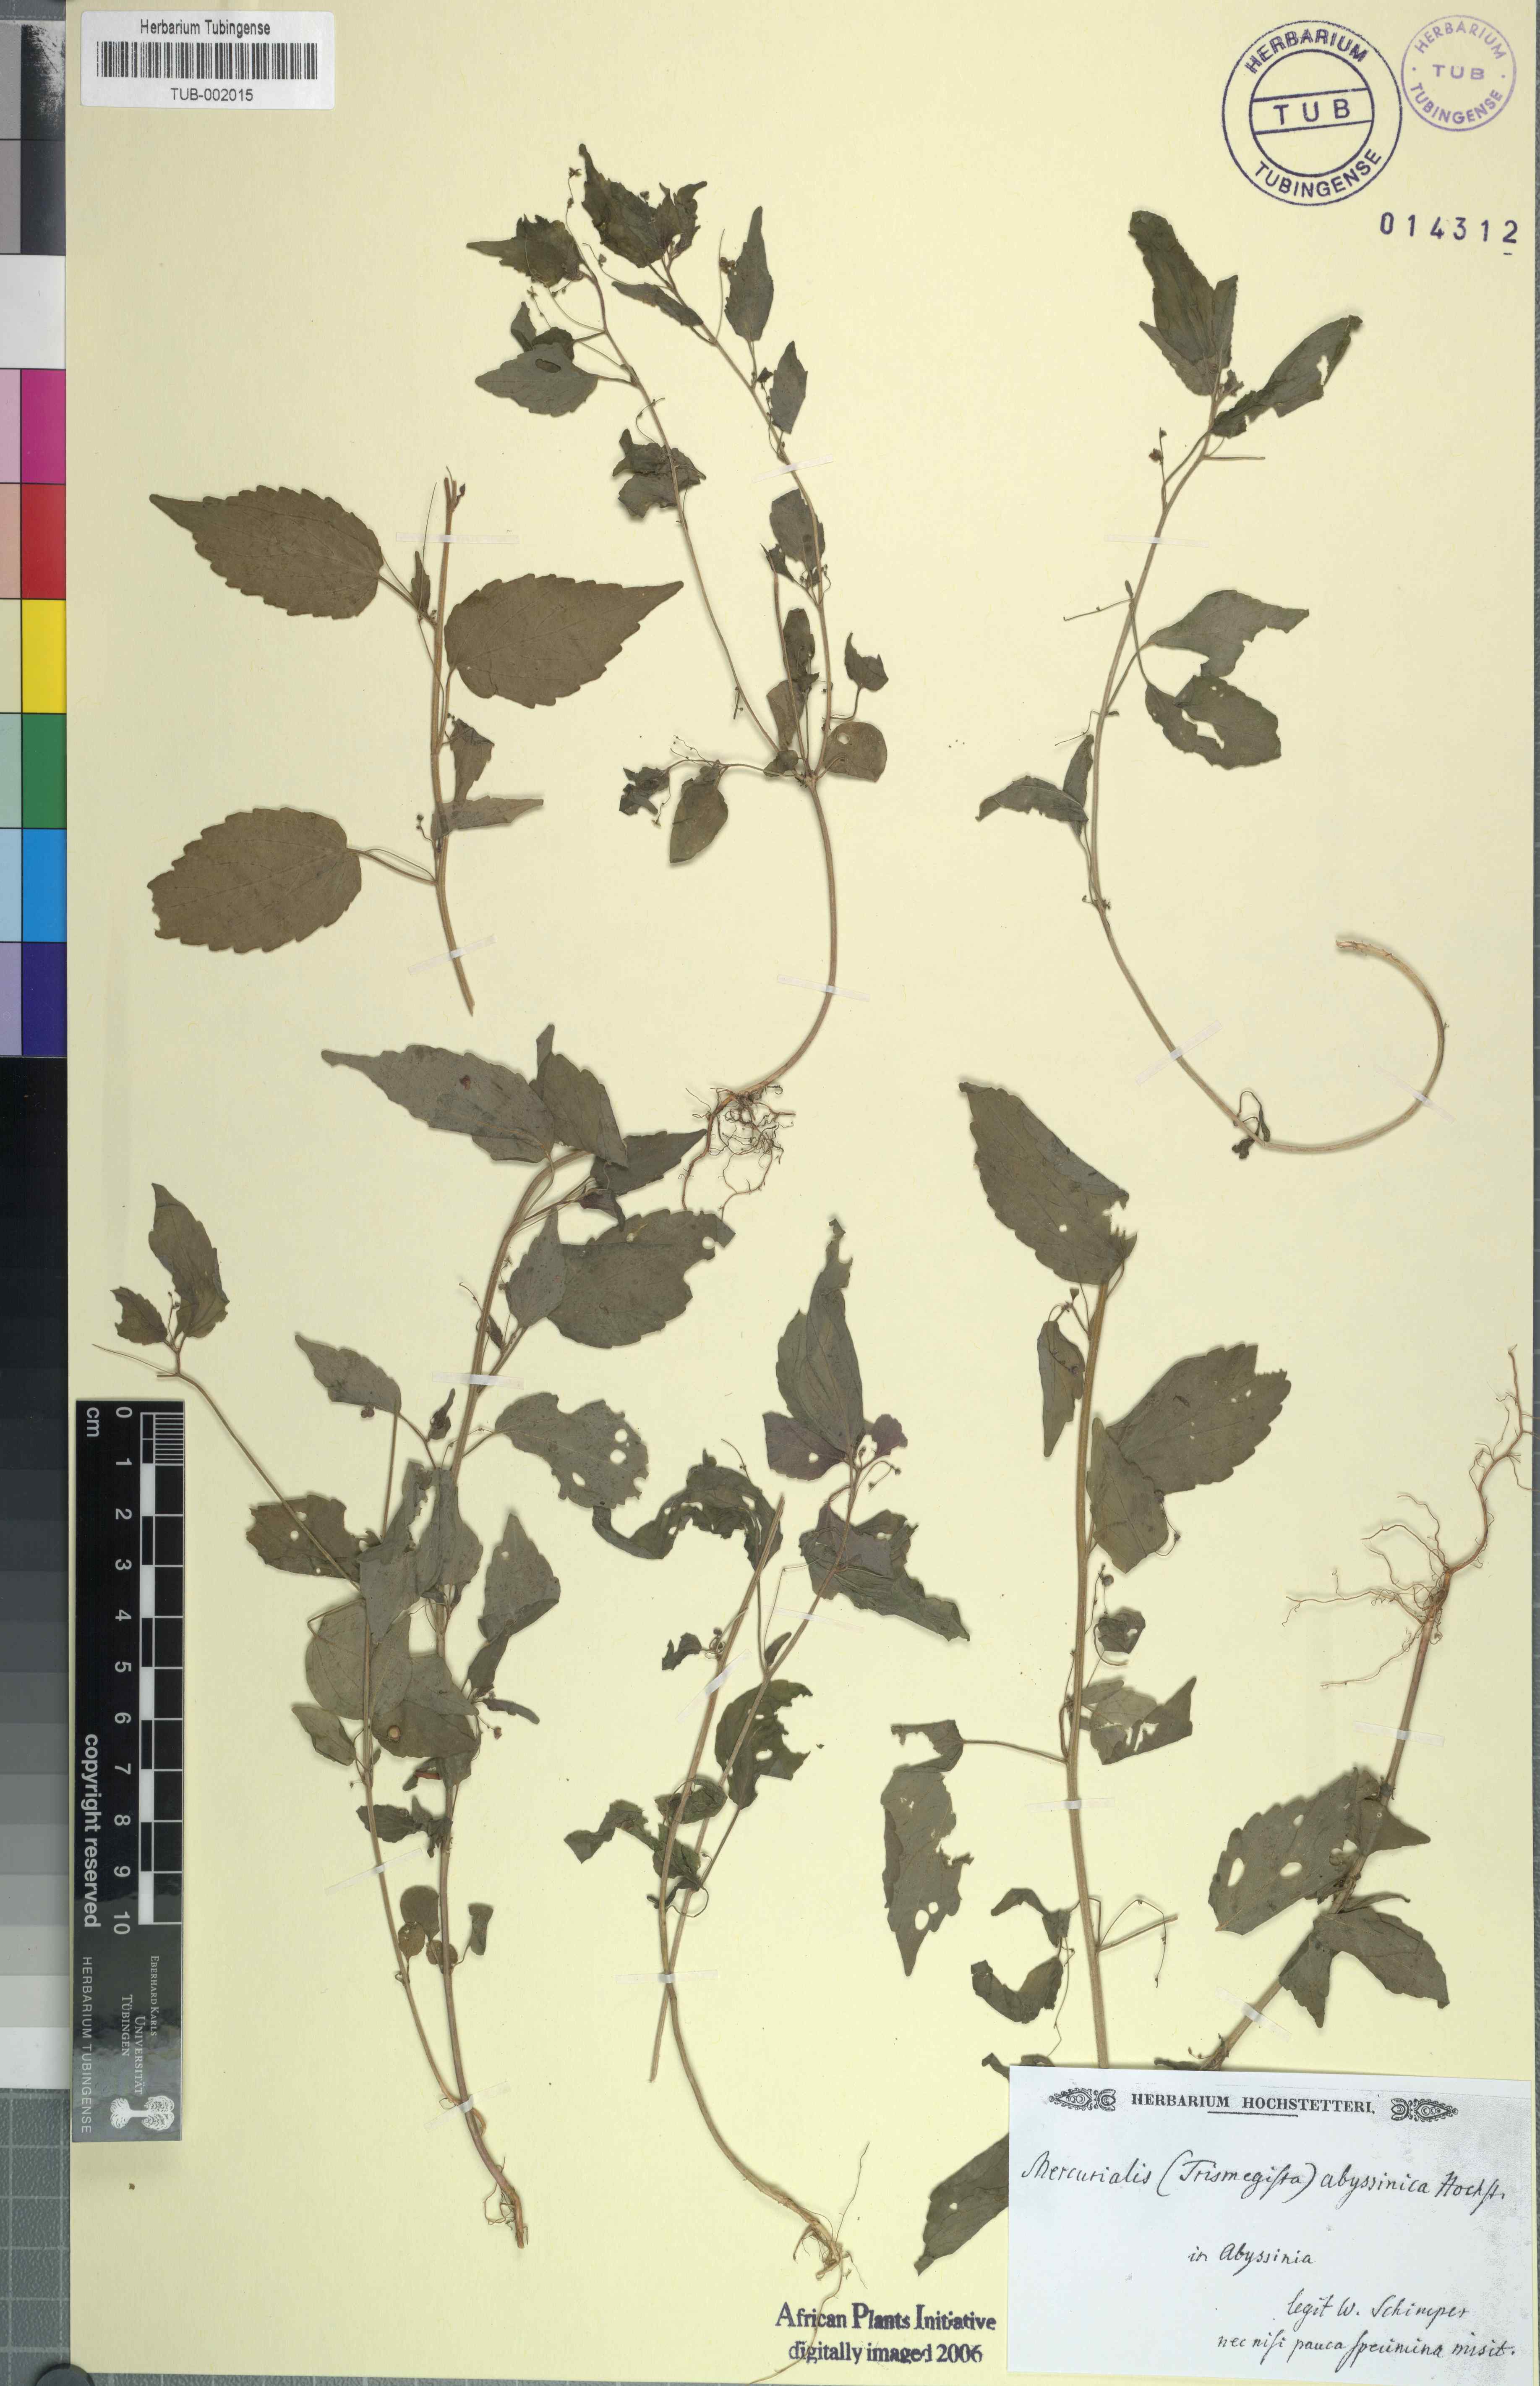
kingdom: Plantae
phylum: Tracheophyta
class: Magnoliopsida
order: Malpighiales
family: Euphorbiaceae
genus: Micrococca
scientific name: Micrococca mercurialis
